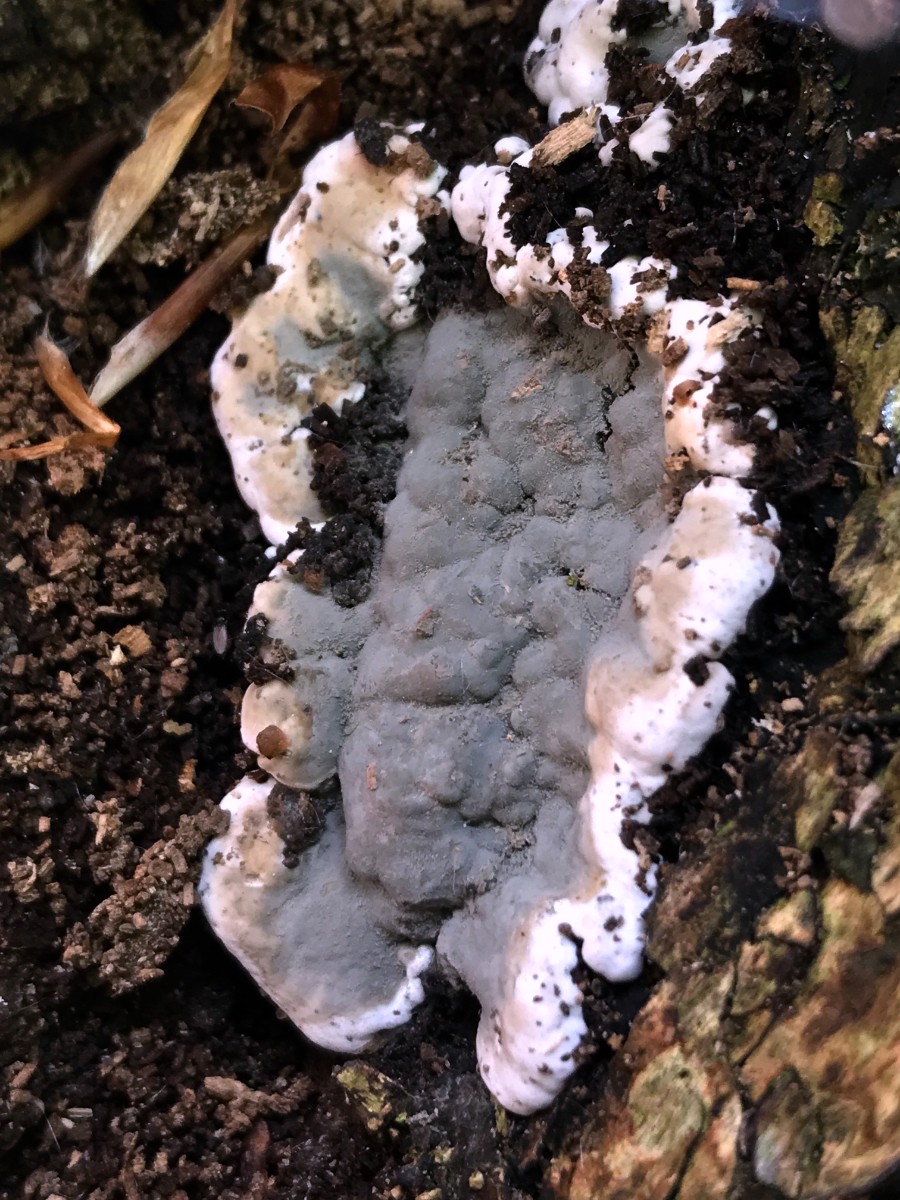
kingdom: Fungi
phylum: Ascomycota
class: Sordariomycetes
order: Xylariales
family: Xylariaceae
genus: Kretzschmaria
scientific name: Kretzschmaria deusta
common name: stor kulsvamp
